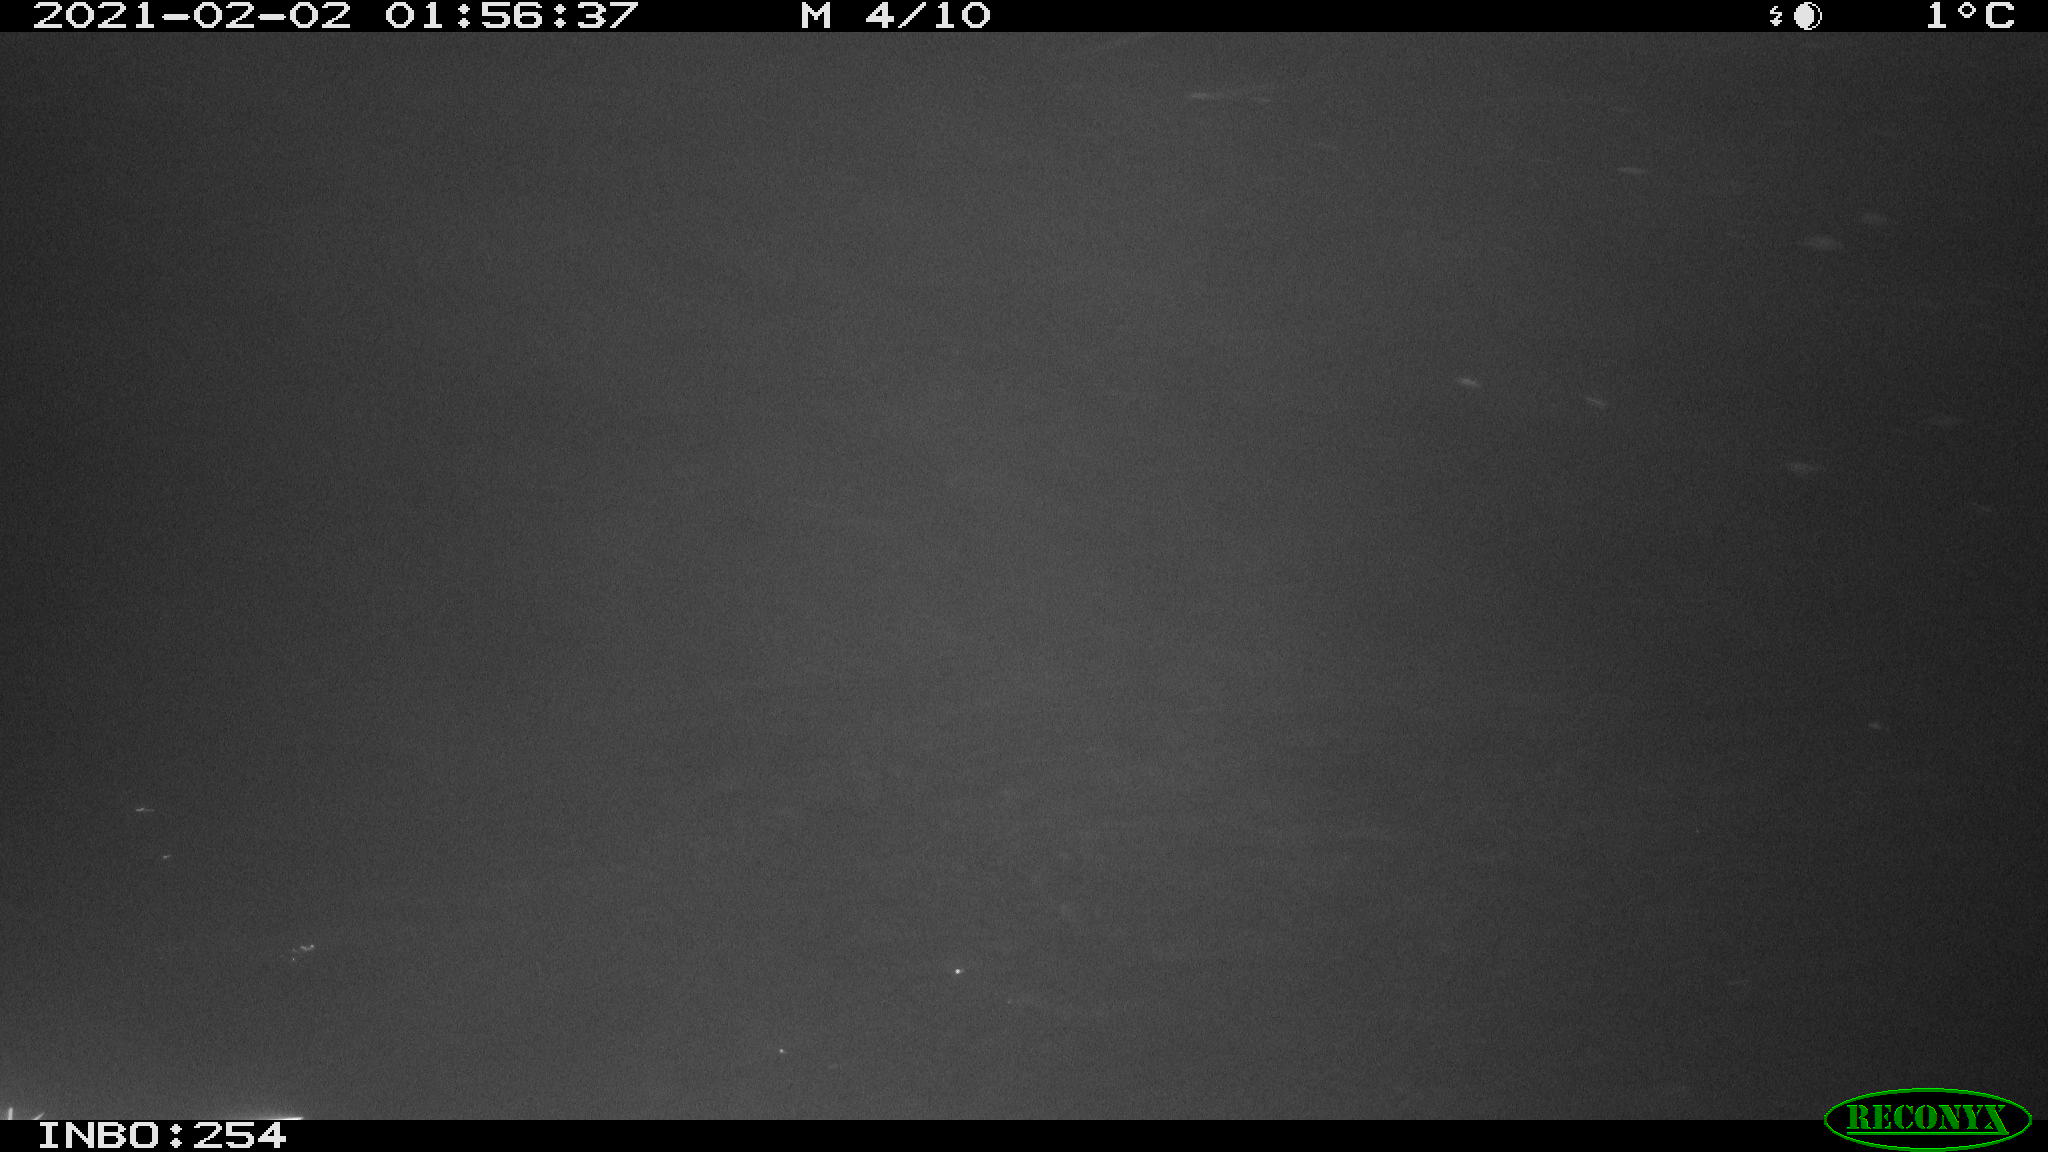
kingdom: Animalia
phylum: Chordata
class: Aves
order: Anseriformes
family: Anatidae
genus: Anas
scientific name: Anas platyrhynchos
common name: Mallard
